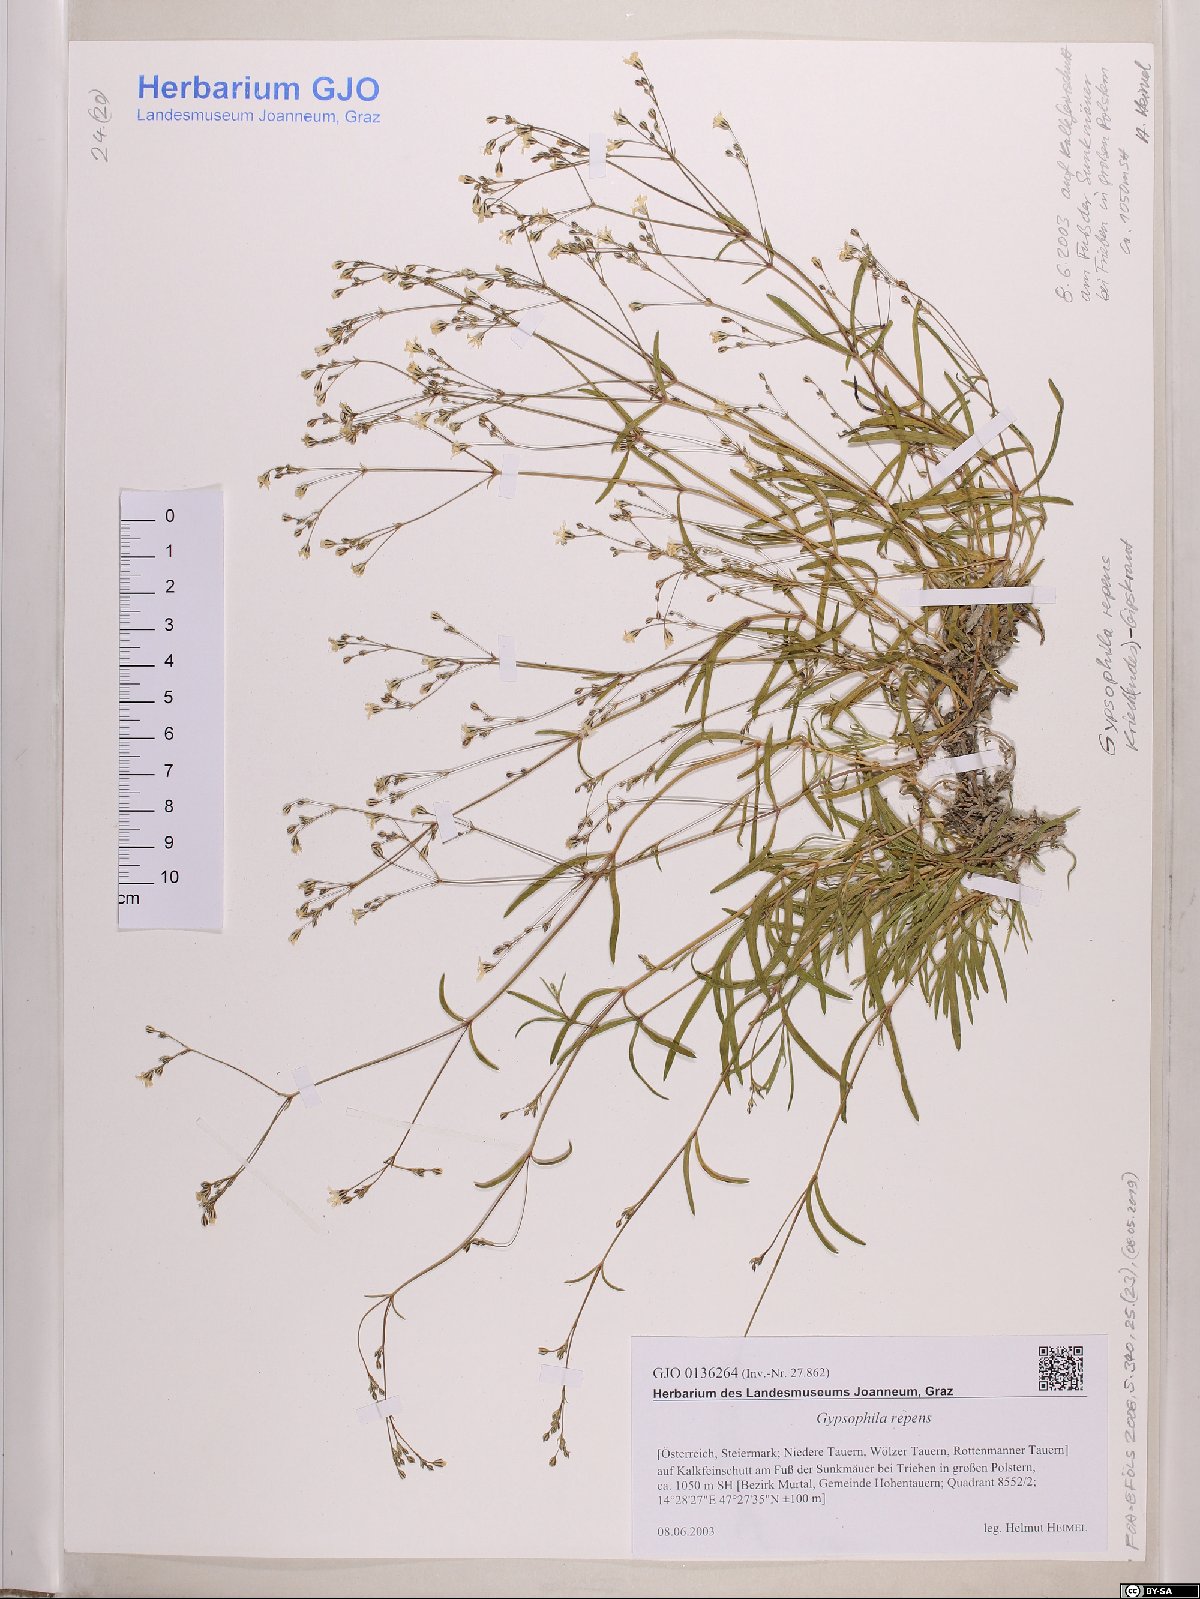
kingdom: Plantae
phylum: Tracheophyta
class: Magnoliopsida
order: Caryophyllales
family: Caryophyllaceae
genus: Gypsophila
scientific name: Gypsophila repens
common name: Creeping baby's-breath
